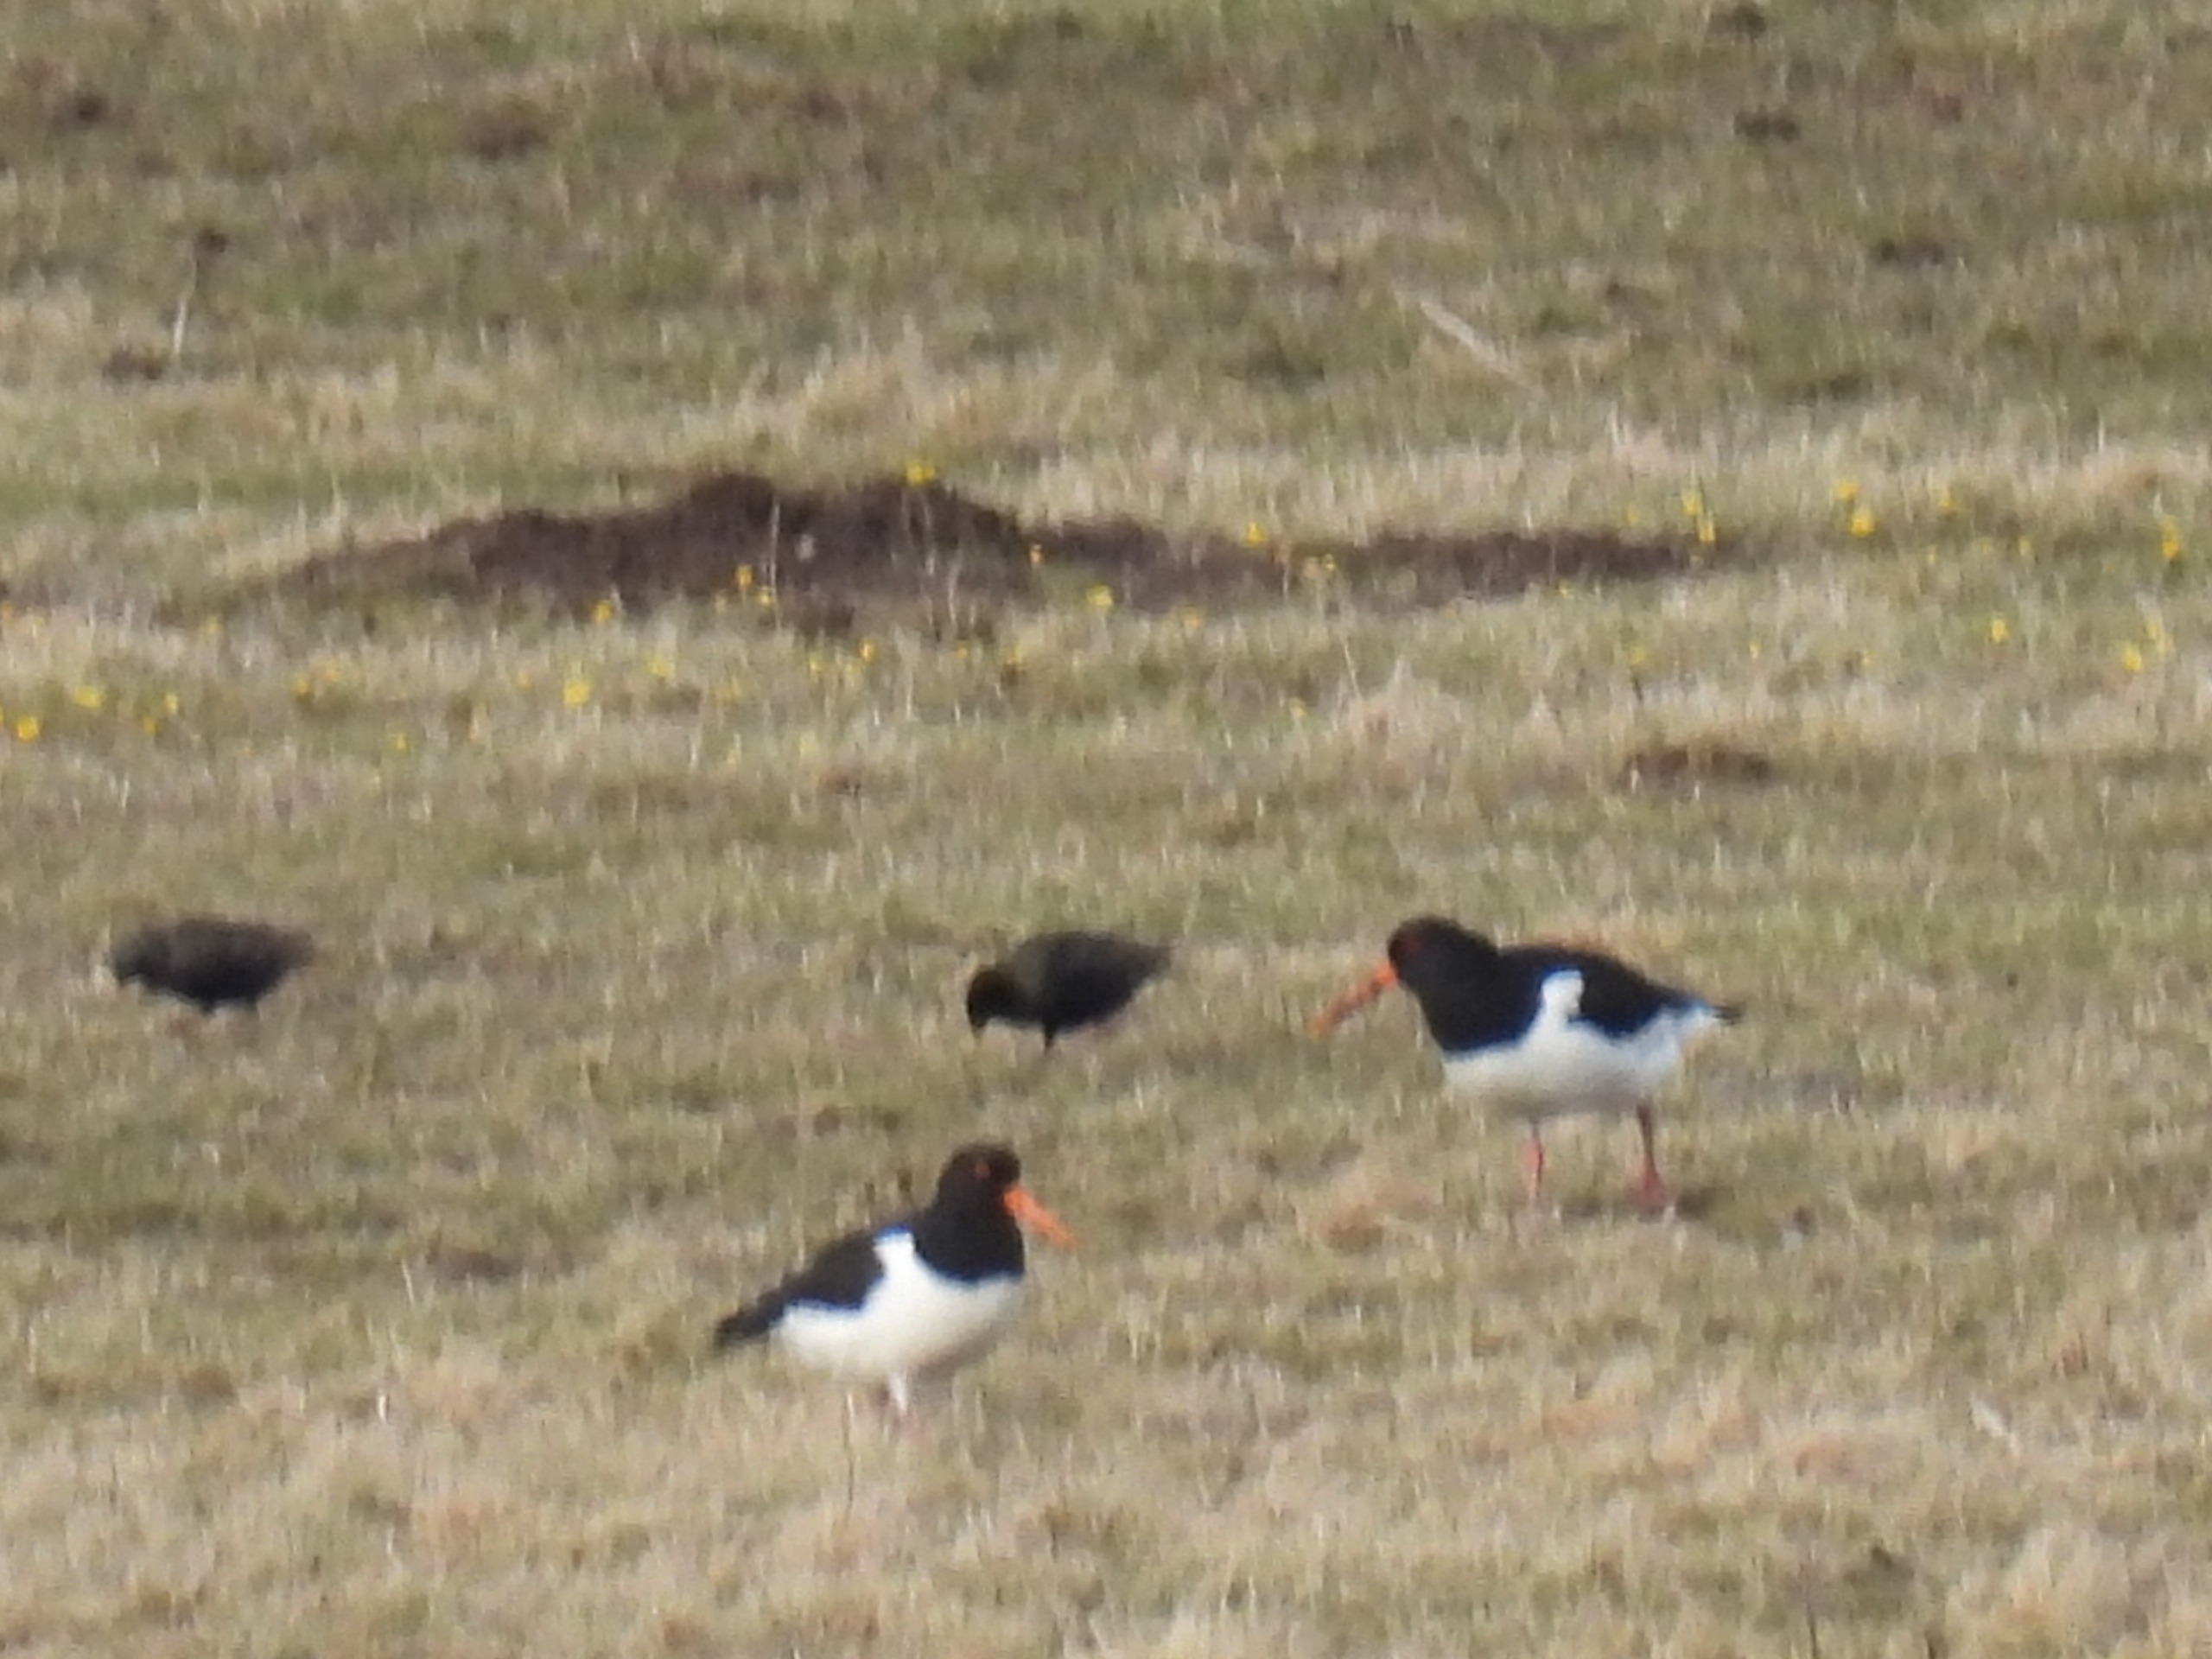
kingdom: Animalia
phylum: Chordata
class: Aves
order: Charadriiformes
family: Haematopodidae
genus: Haematopus
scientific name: Haematopus ostralegus
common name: Strandskade
